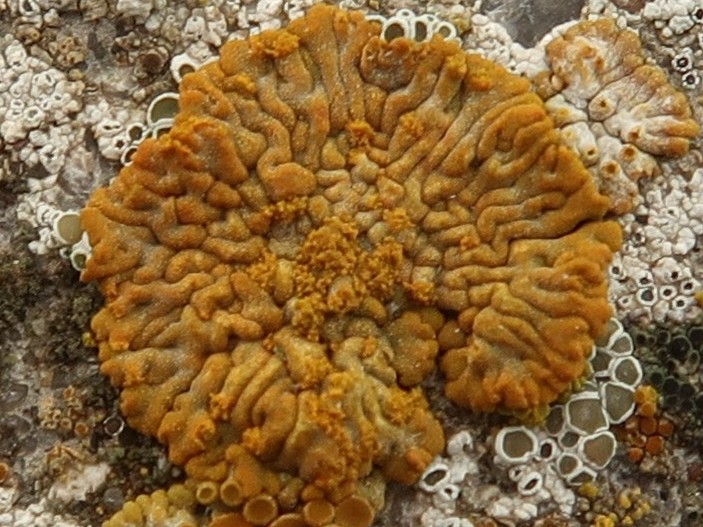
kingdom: Fungi
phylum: Ascomycota
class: Lecanoromycetes
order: Teloschistales
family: Teloschistaceae
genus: Calogaya
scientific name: Calogaya decipiens
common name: knudret orangelav
